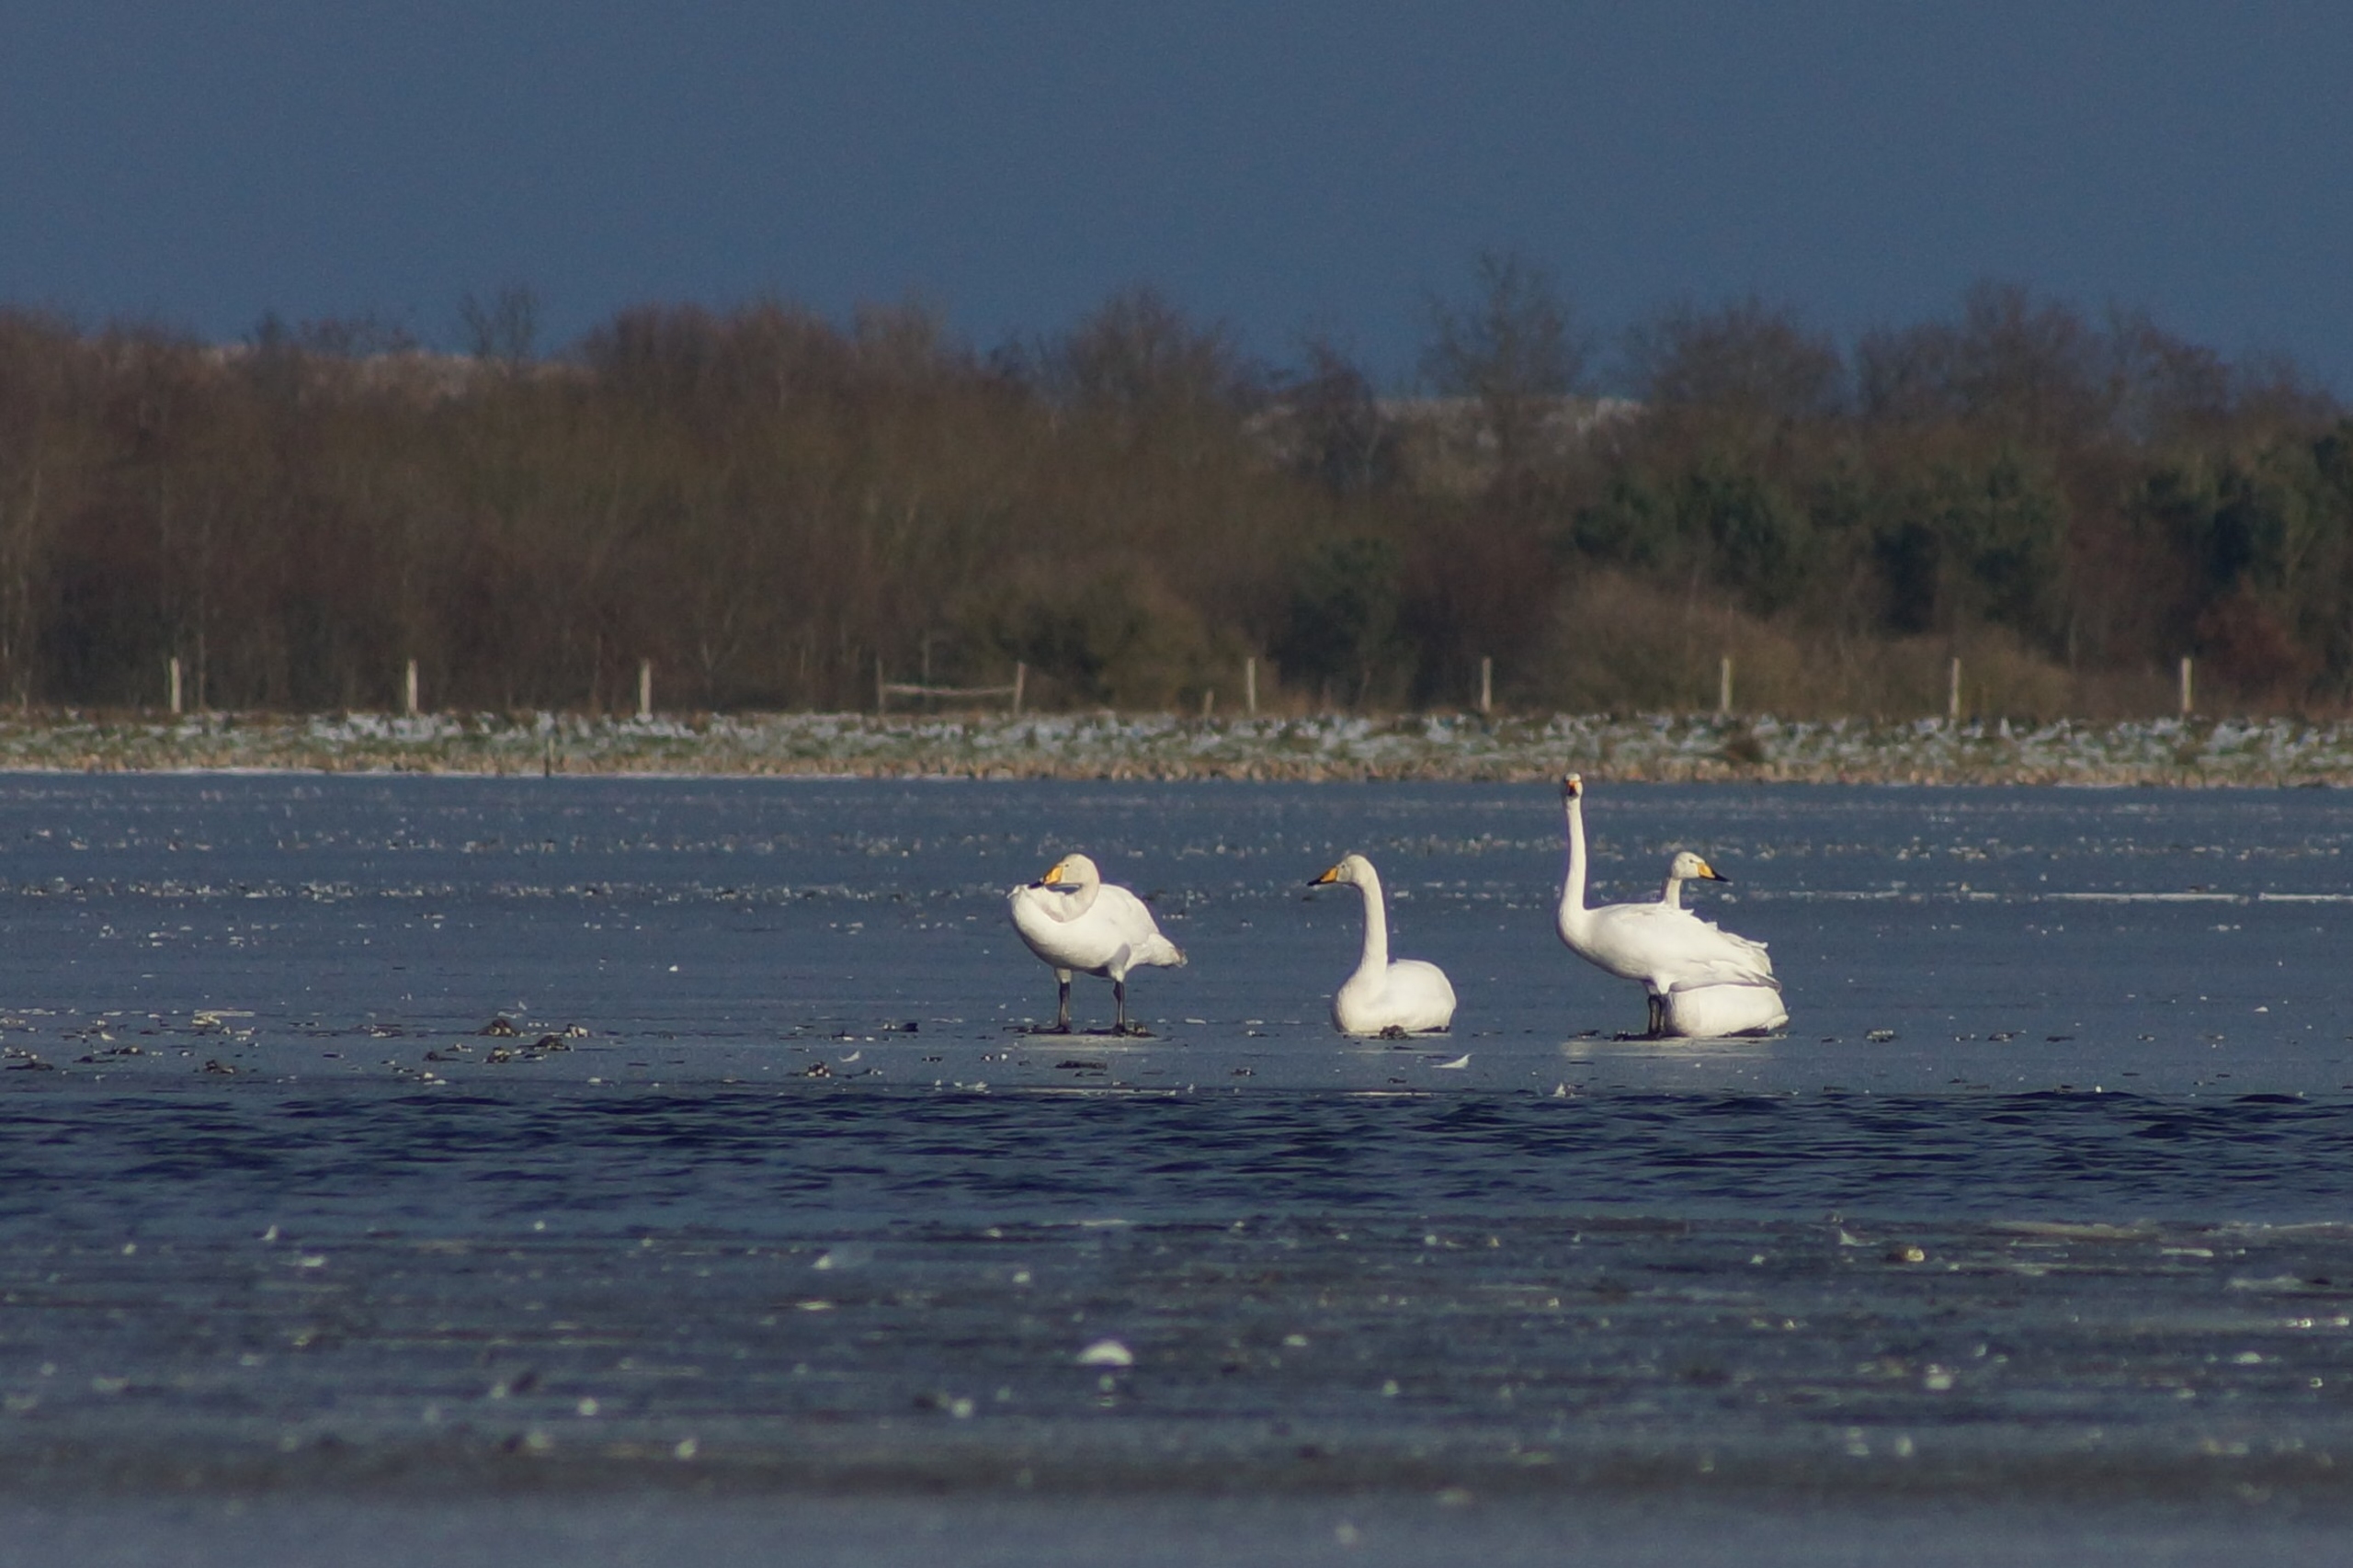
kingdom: Animalia
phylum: Chordata
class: Aves
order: Anseriformes
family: Anatidae
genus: Cygnus
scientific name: Cygnus cygnus
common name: Sangsvane
